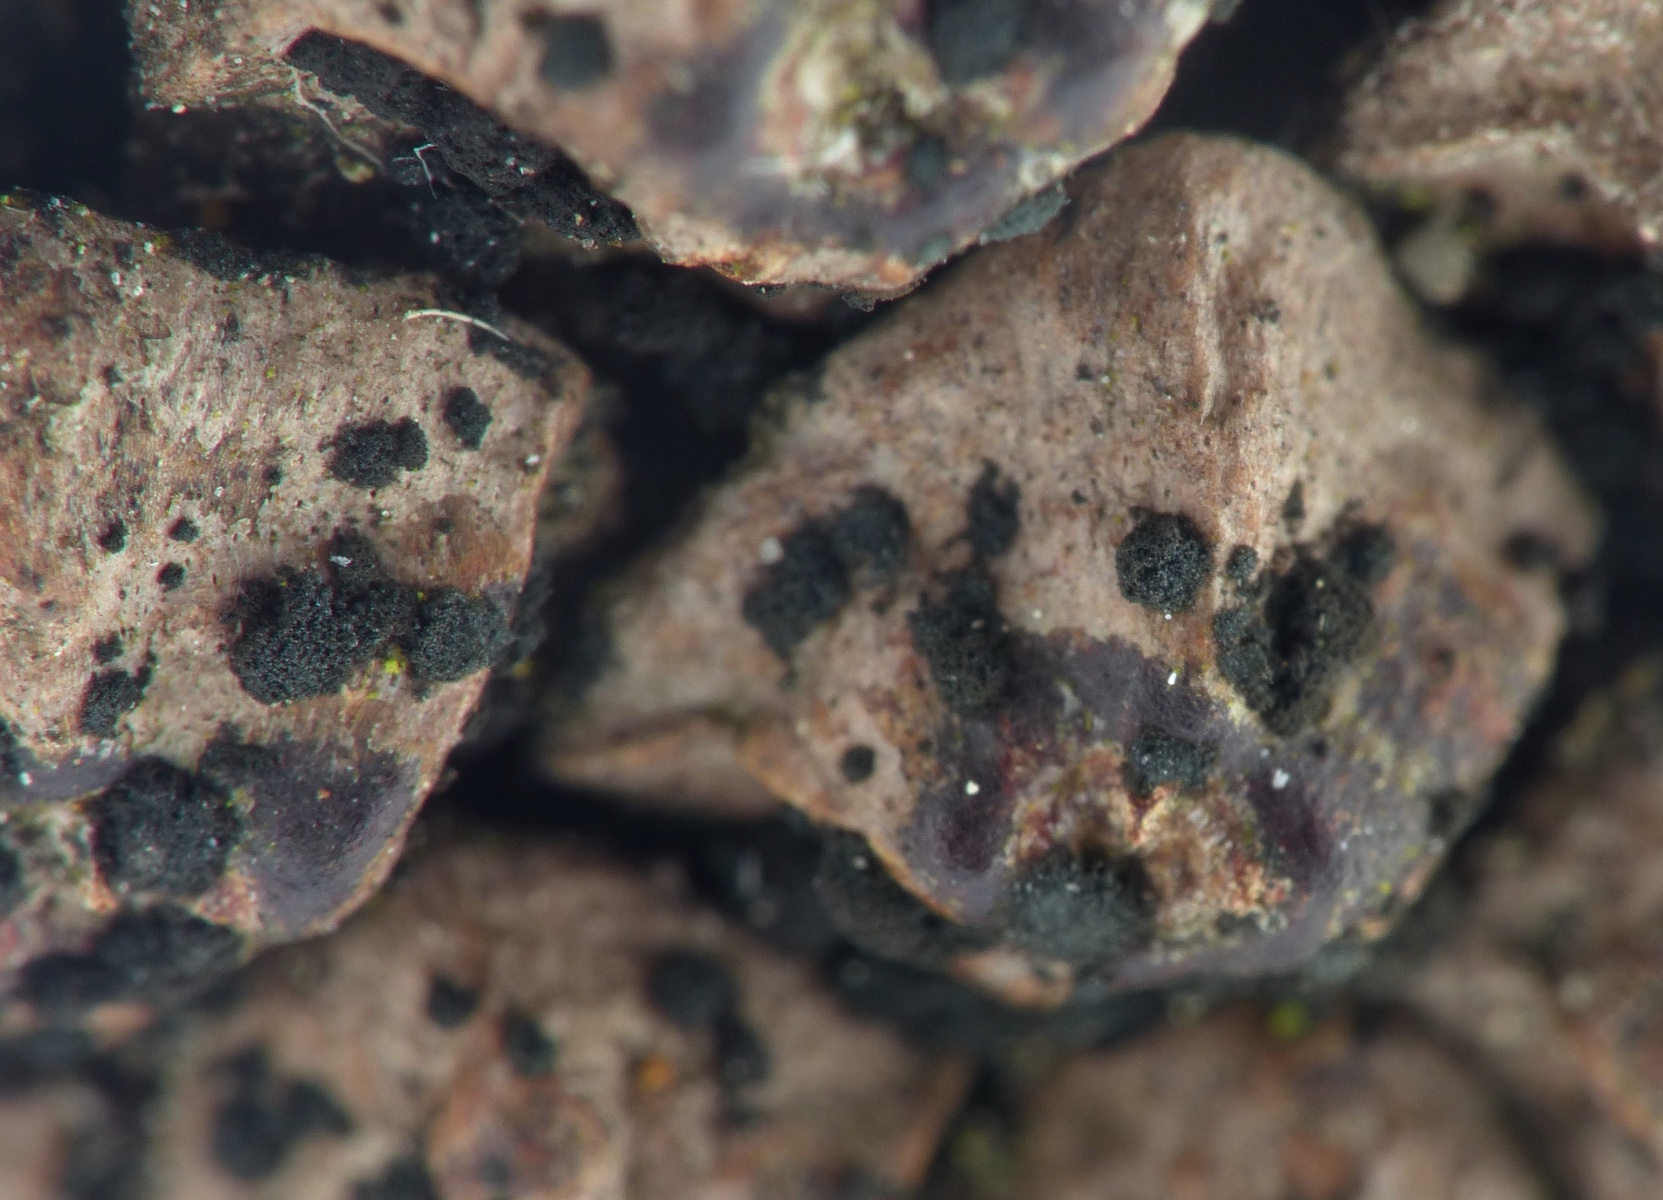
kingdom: Fungi
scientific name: Fungi
